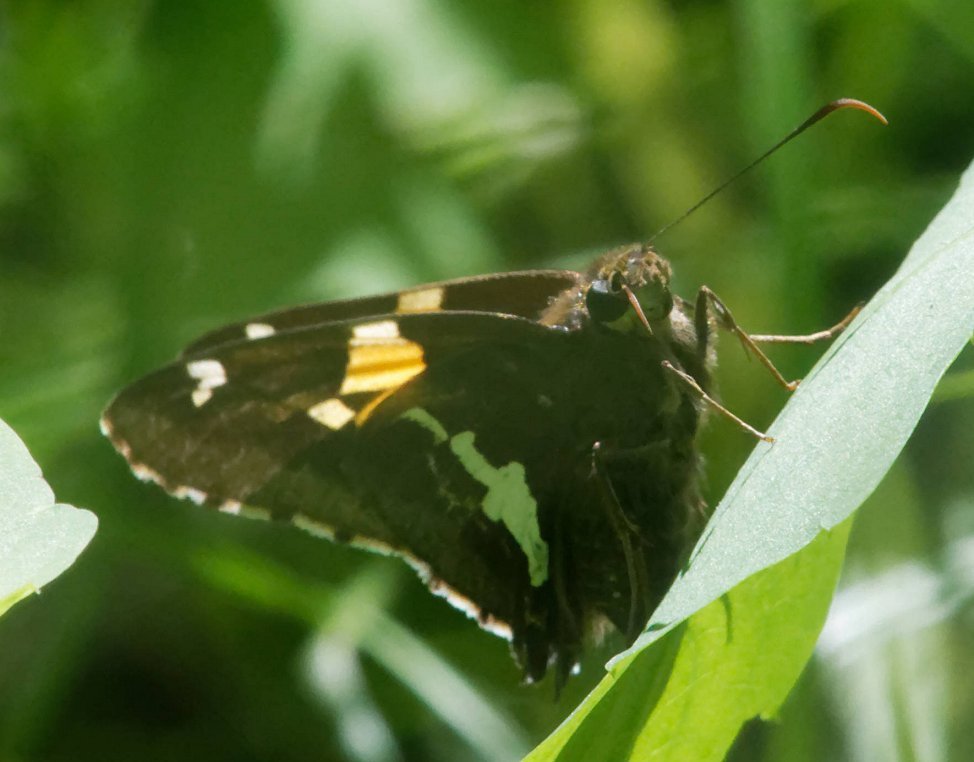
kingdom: Animalia
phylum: Arthropoda
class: Insecta
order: Lepidoptera
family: Hesperiidae
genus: Epargyreus
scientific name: Epargyreus clarus
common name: Silver-spotted Skipper
